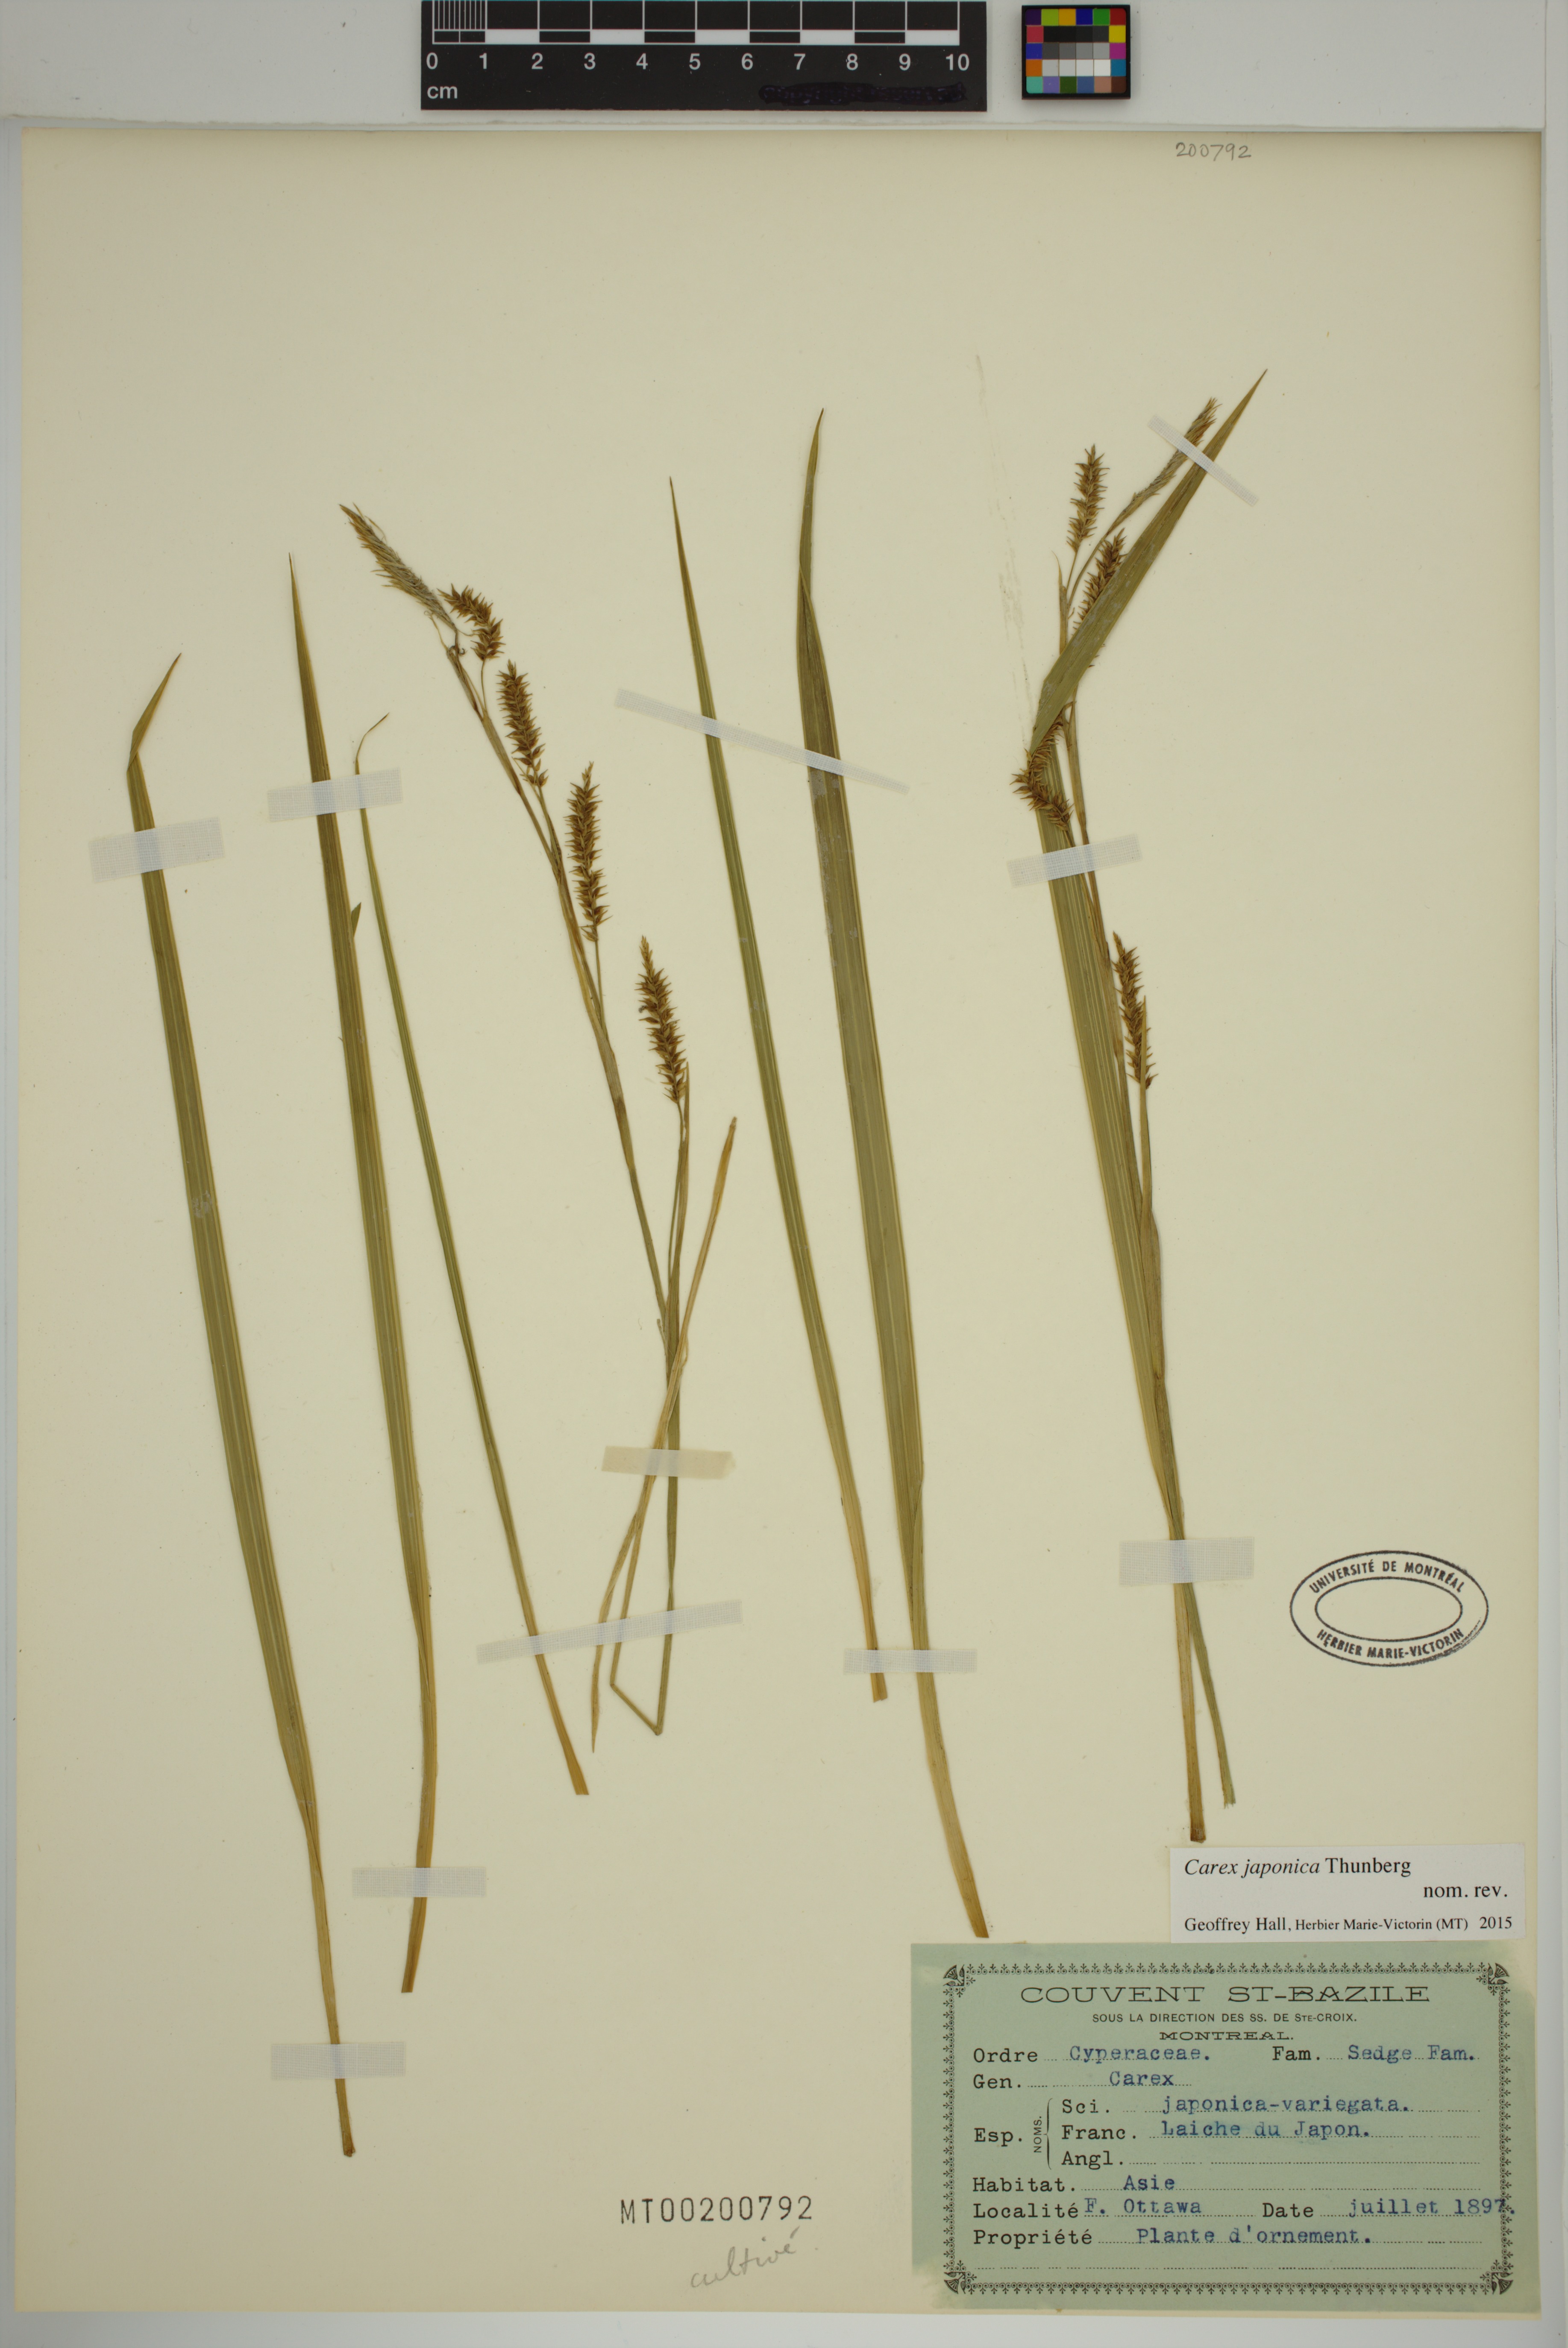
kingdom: Plantae
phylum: Tracheophyta
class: Liliopsida
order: Poales
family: Cyperaceae
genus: Carex
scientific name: Carex japonica
